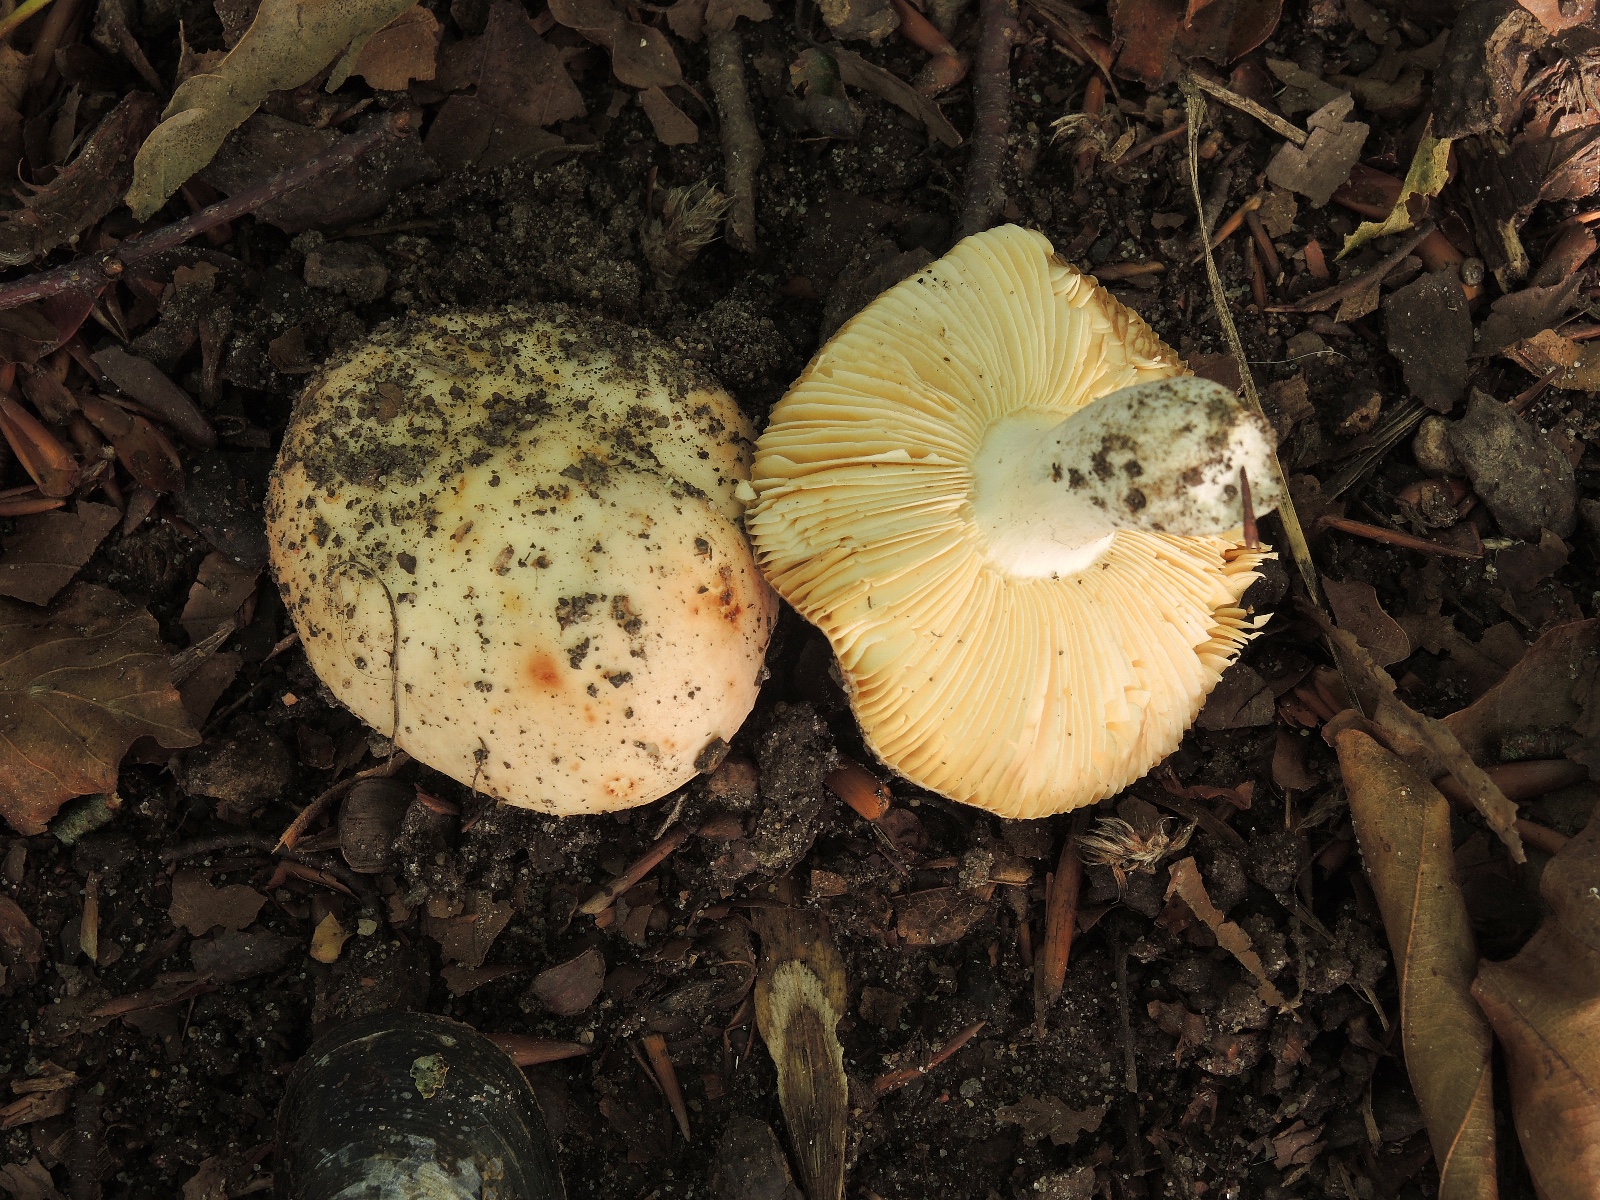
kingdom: Fungi
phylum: Basidiomycota
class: Agaricomycetes
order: Russulales
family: Russulaceae
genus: Russula
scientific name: Russula
